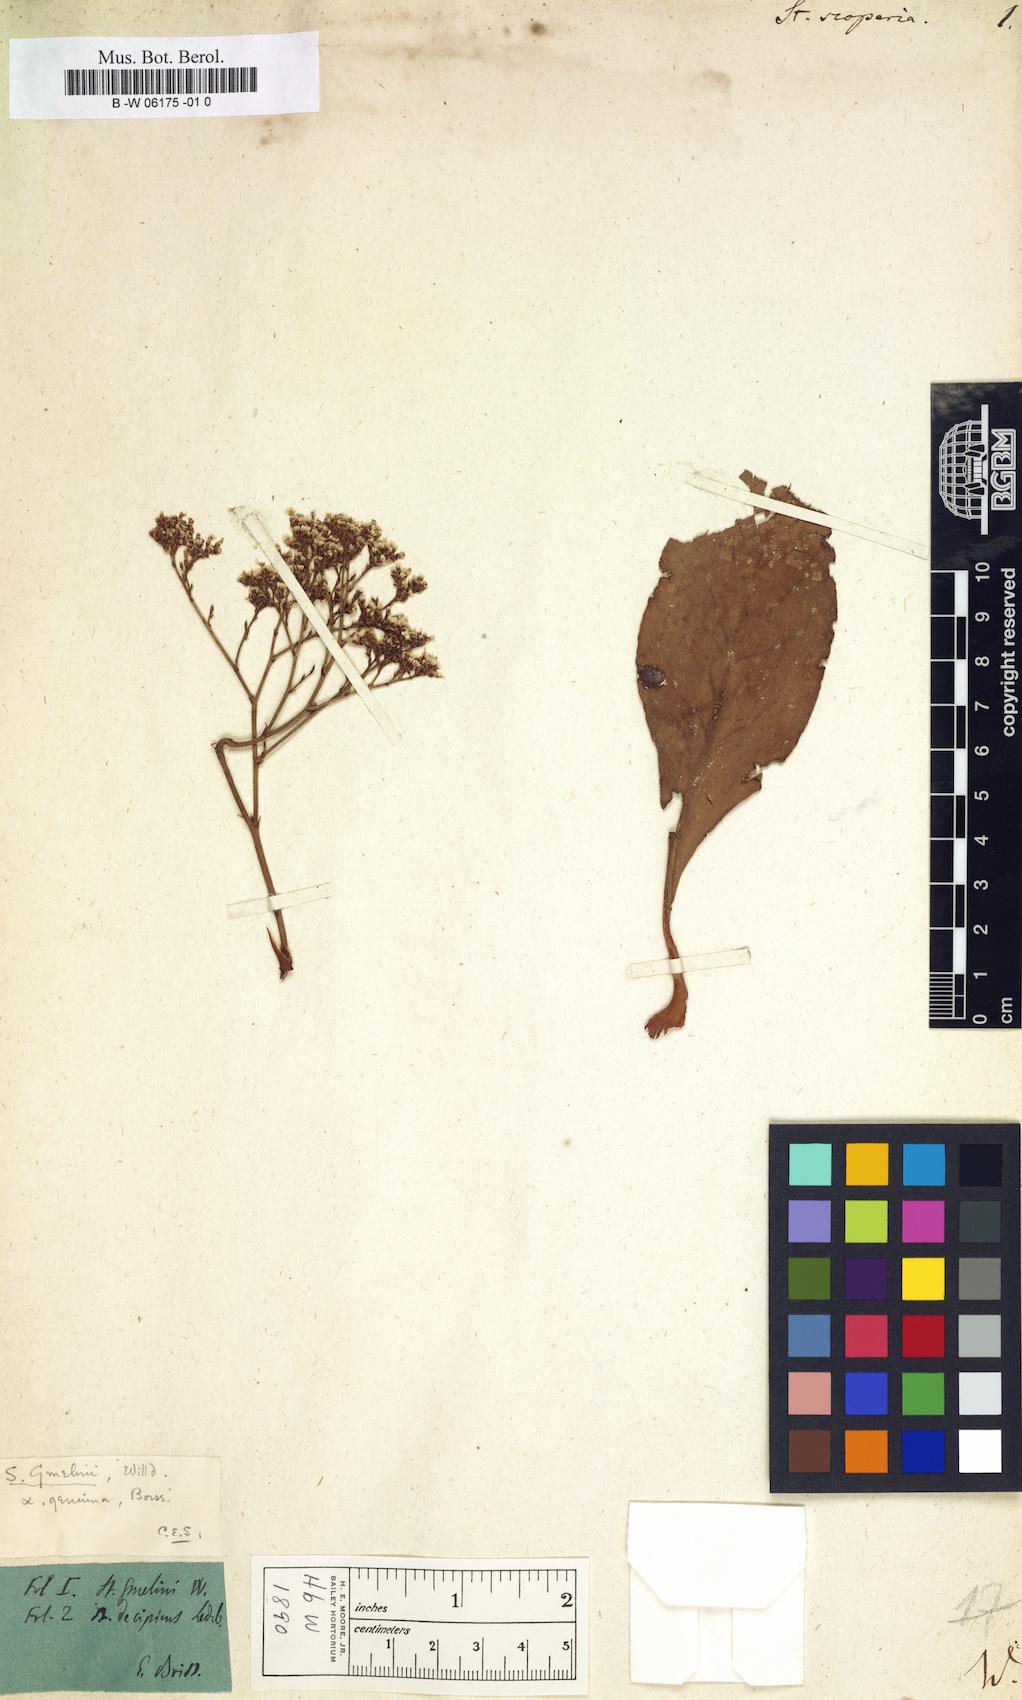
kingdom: Plantae
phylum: Tracheophyta
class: Magnoliopsida
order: Caryophyllales
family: Plumbaginaceae
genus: Limonium
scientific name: Limonium scoparium
